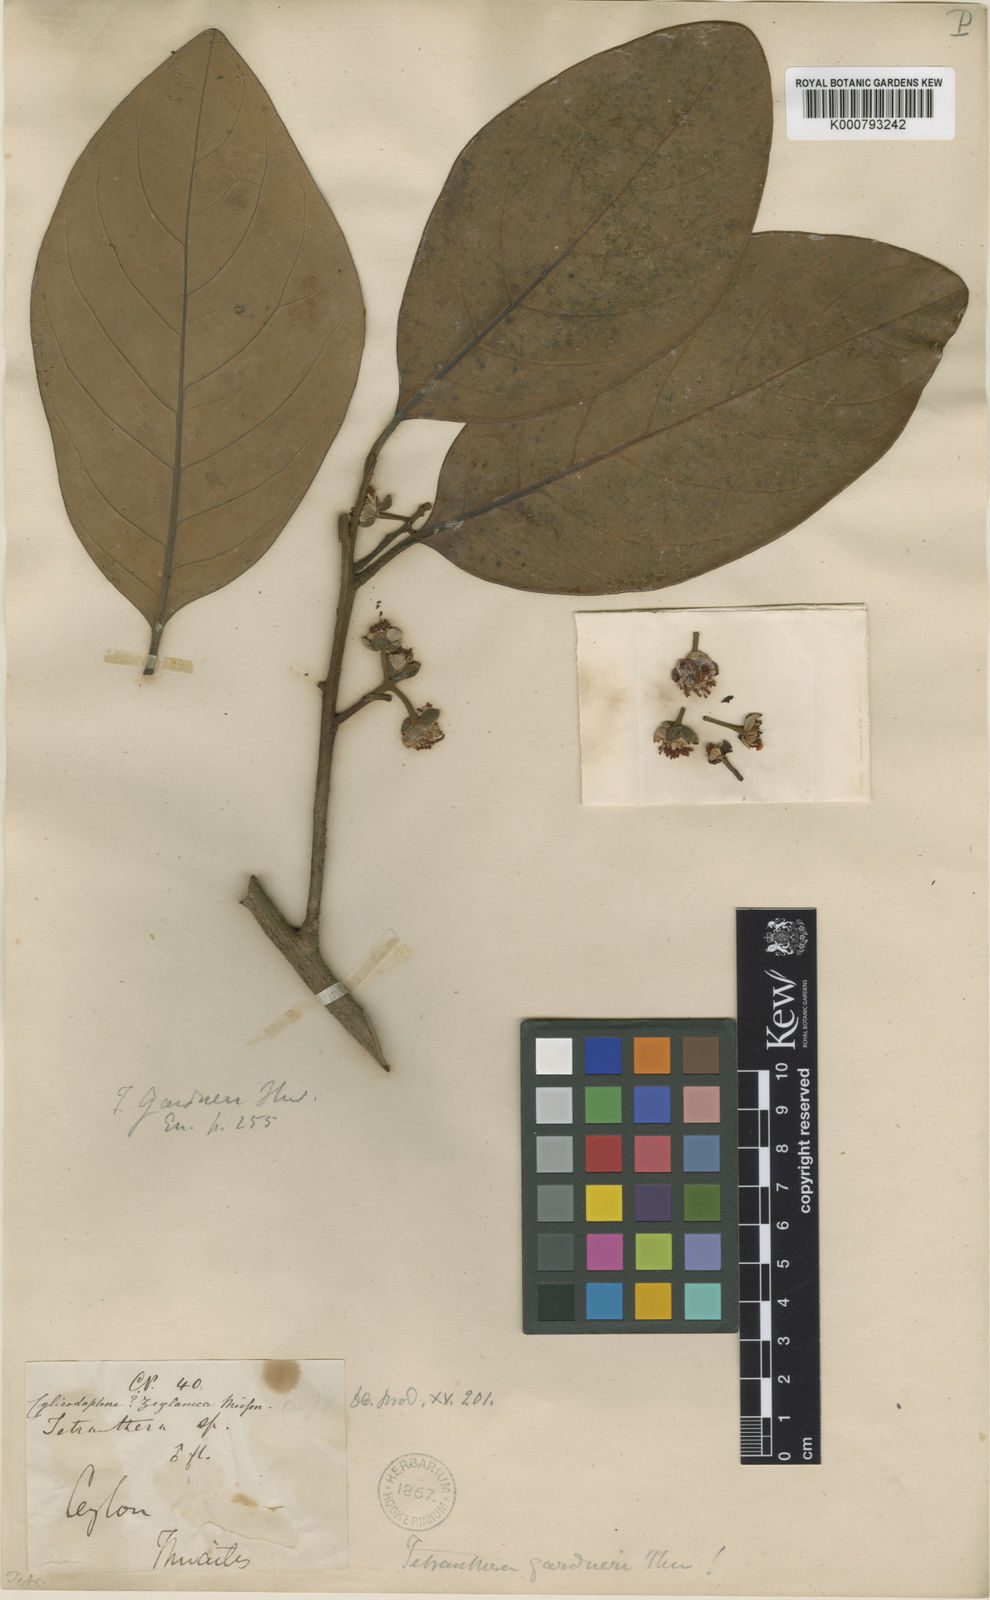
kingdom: Plantae
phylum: Tracheophyta
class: Magnoliopsida
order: Laurales
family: Lauraceae
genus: Litsea
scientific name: Litsea gardneri
